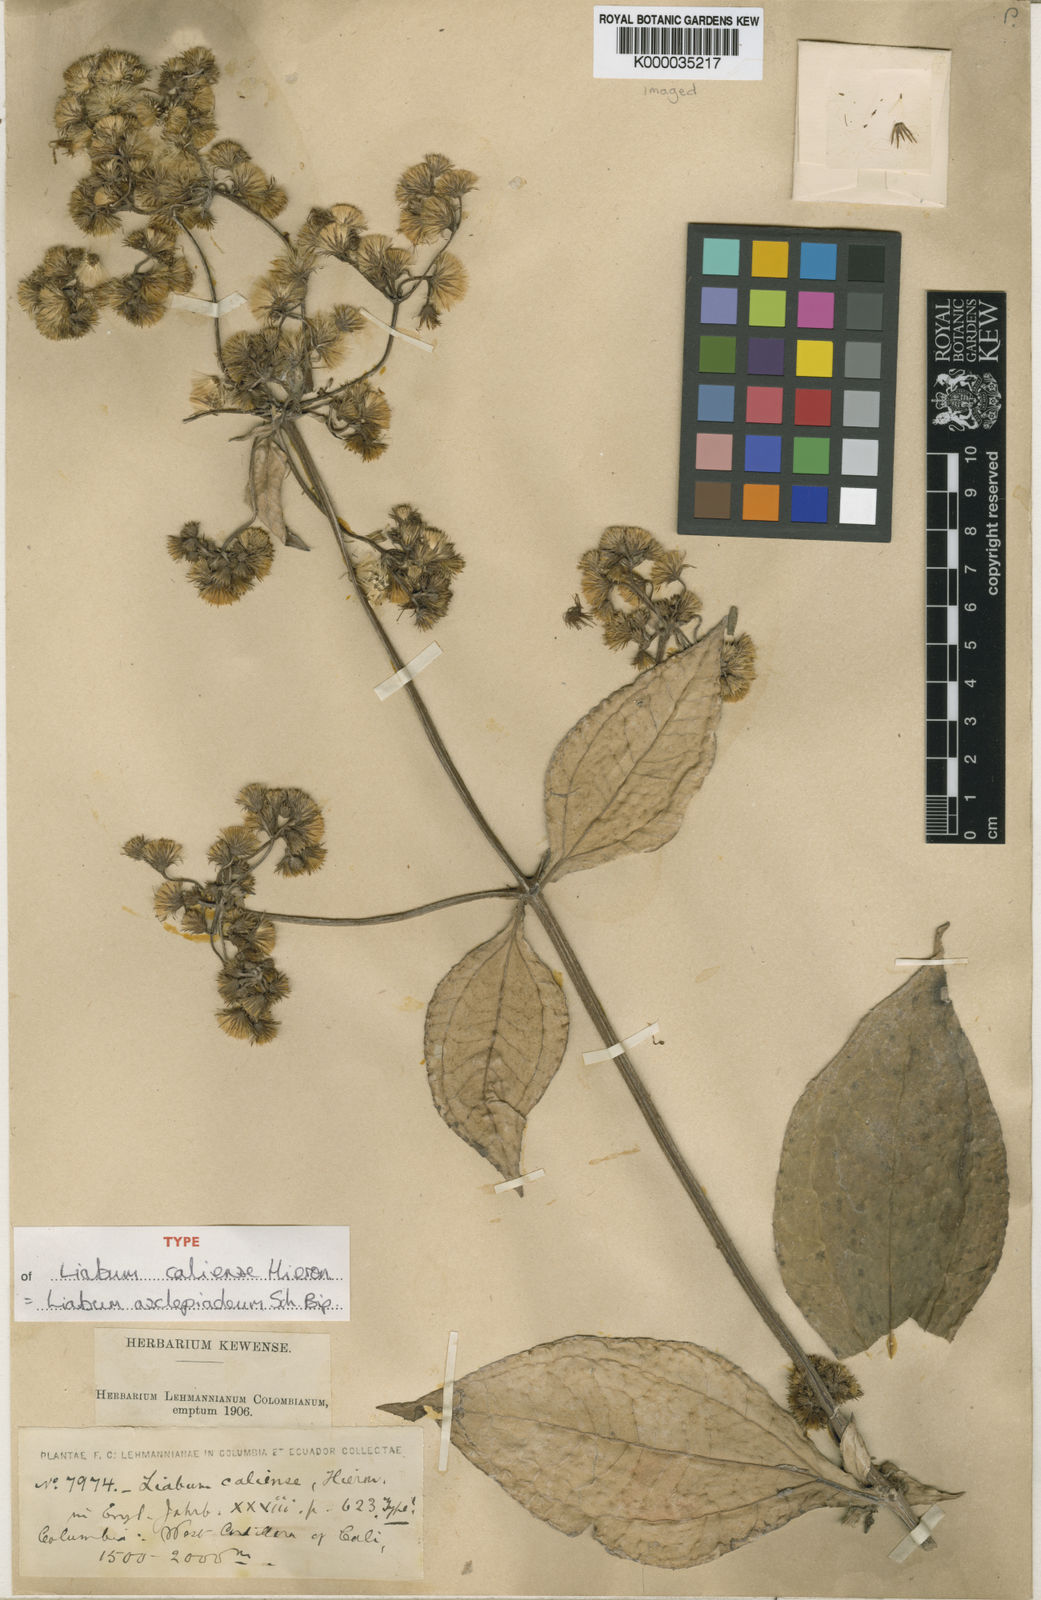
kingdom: Plantae
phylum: Tracheophyta
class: Magnoliopsida
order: Asterales
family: Asteraceae
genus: Liabum
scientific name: Liabum asclepiadeum
